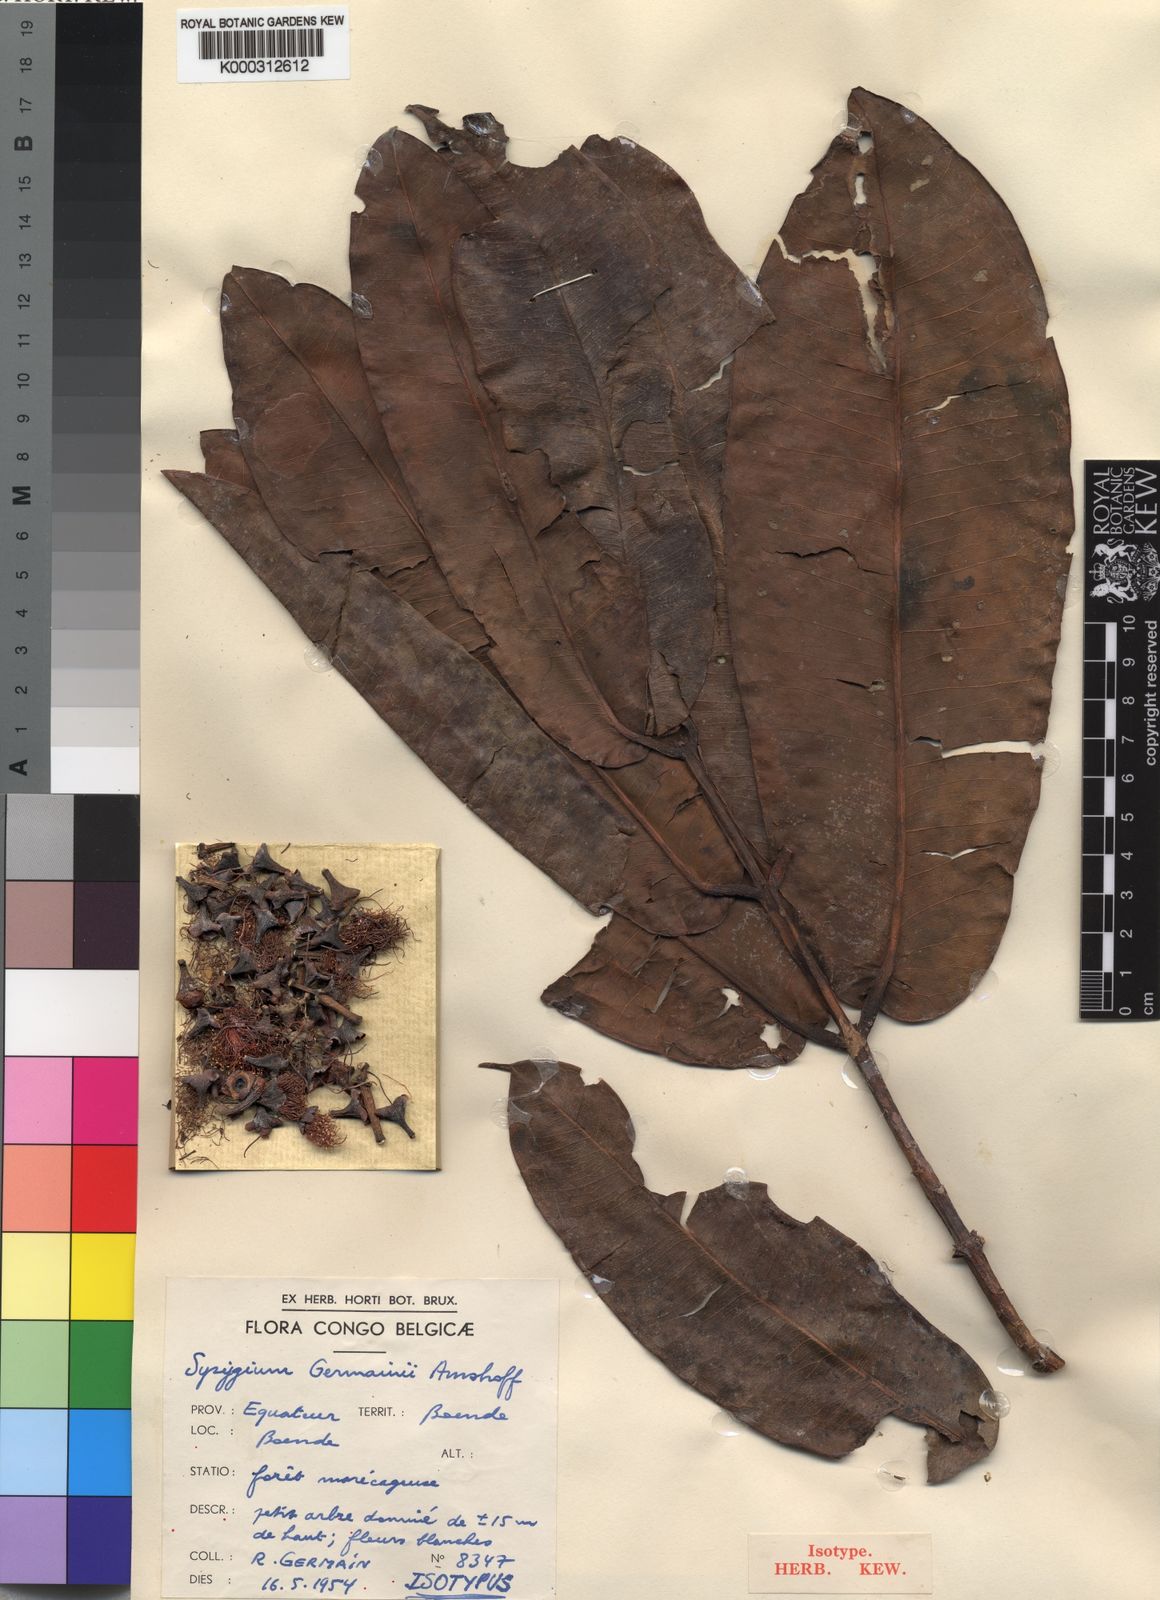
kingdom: Plantae
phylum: Tracheophyta
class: Magnoliopsida
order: Myrtales
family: Myrtaceae
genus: Syzygium
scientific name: Syzygium germainii
